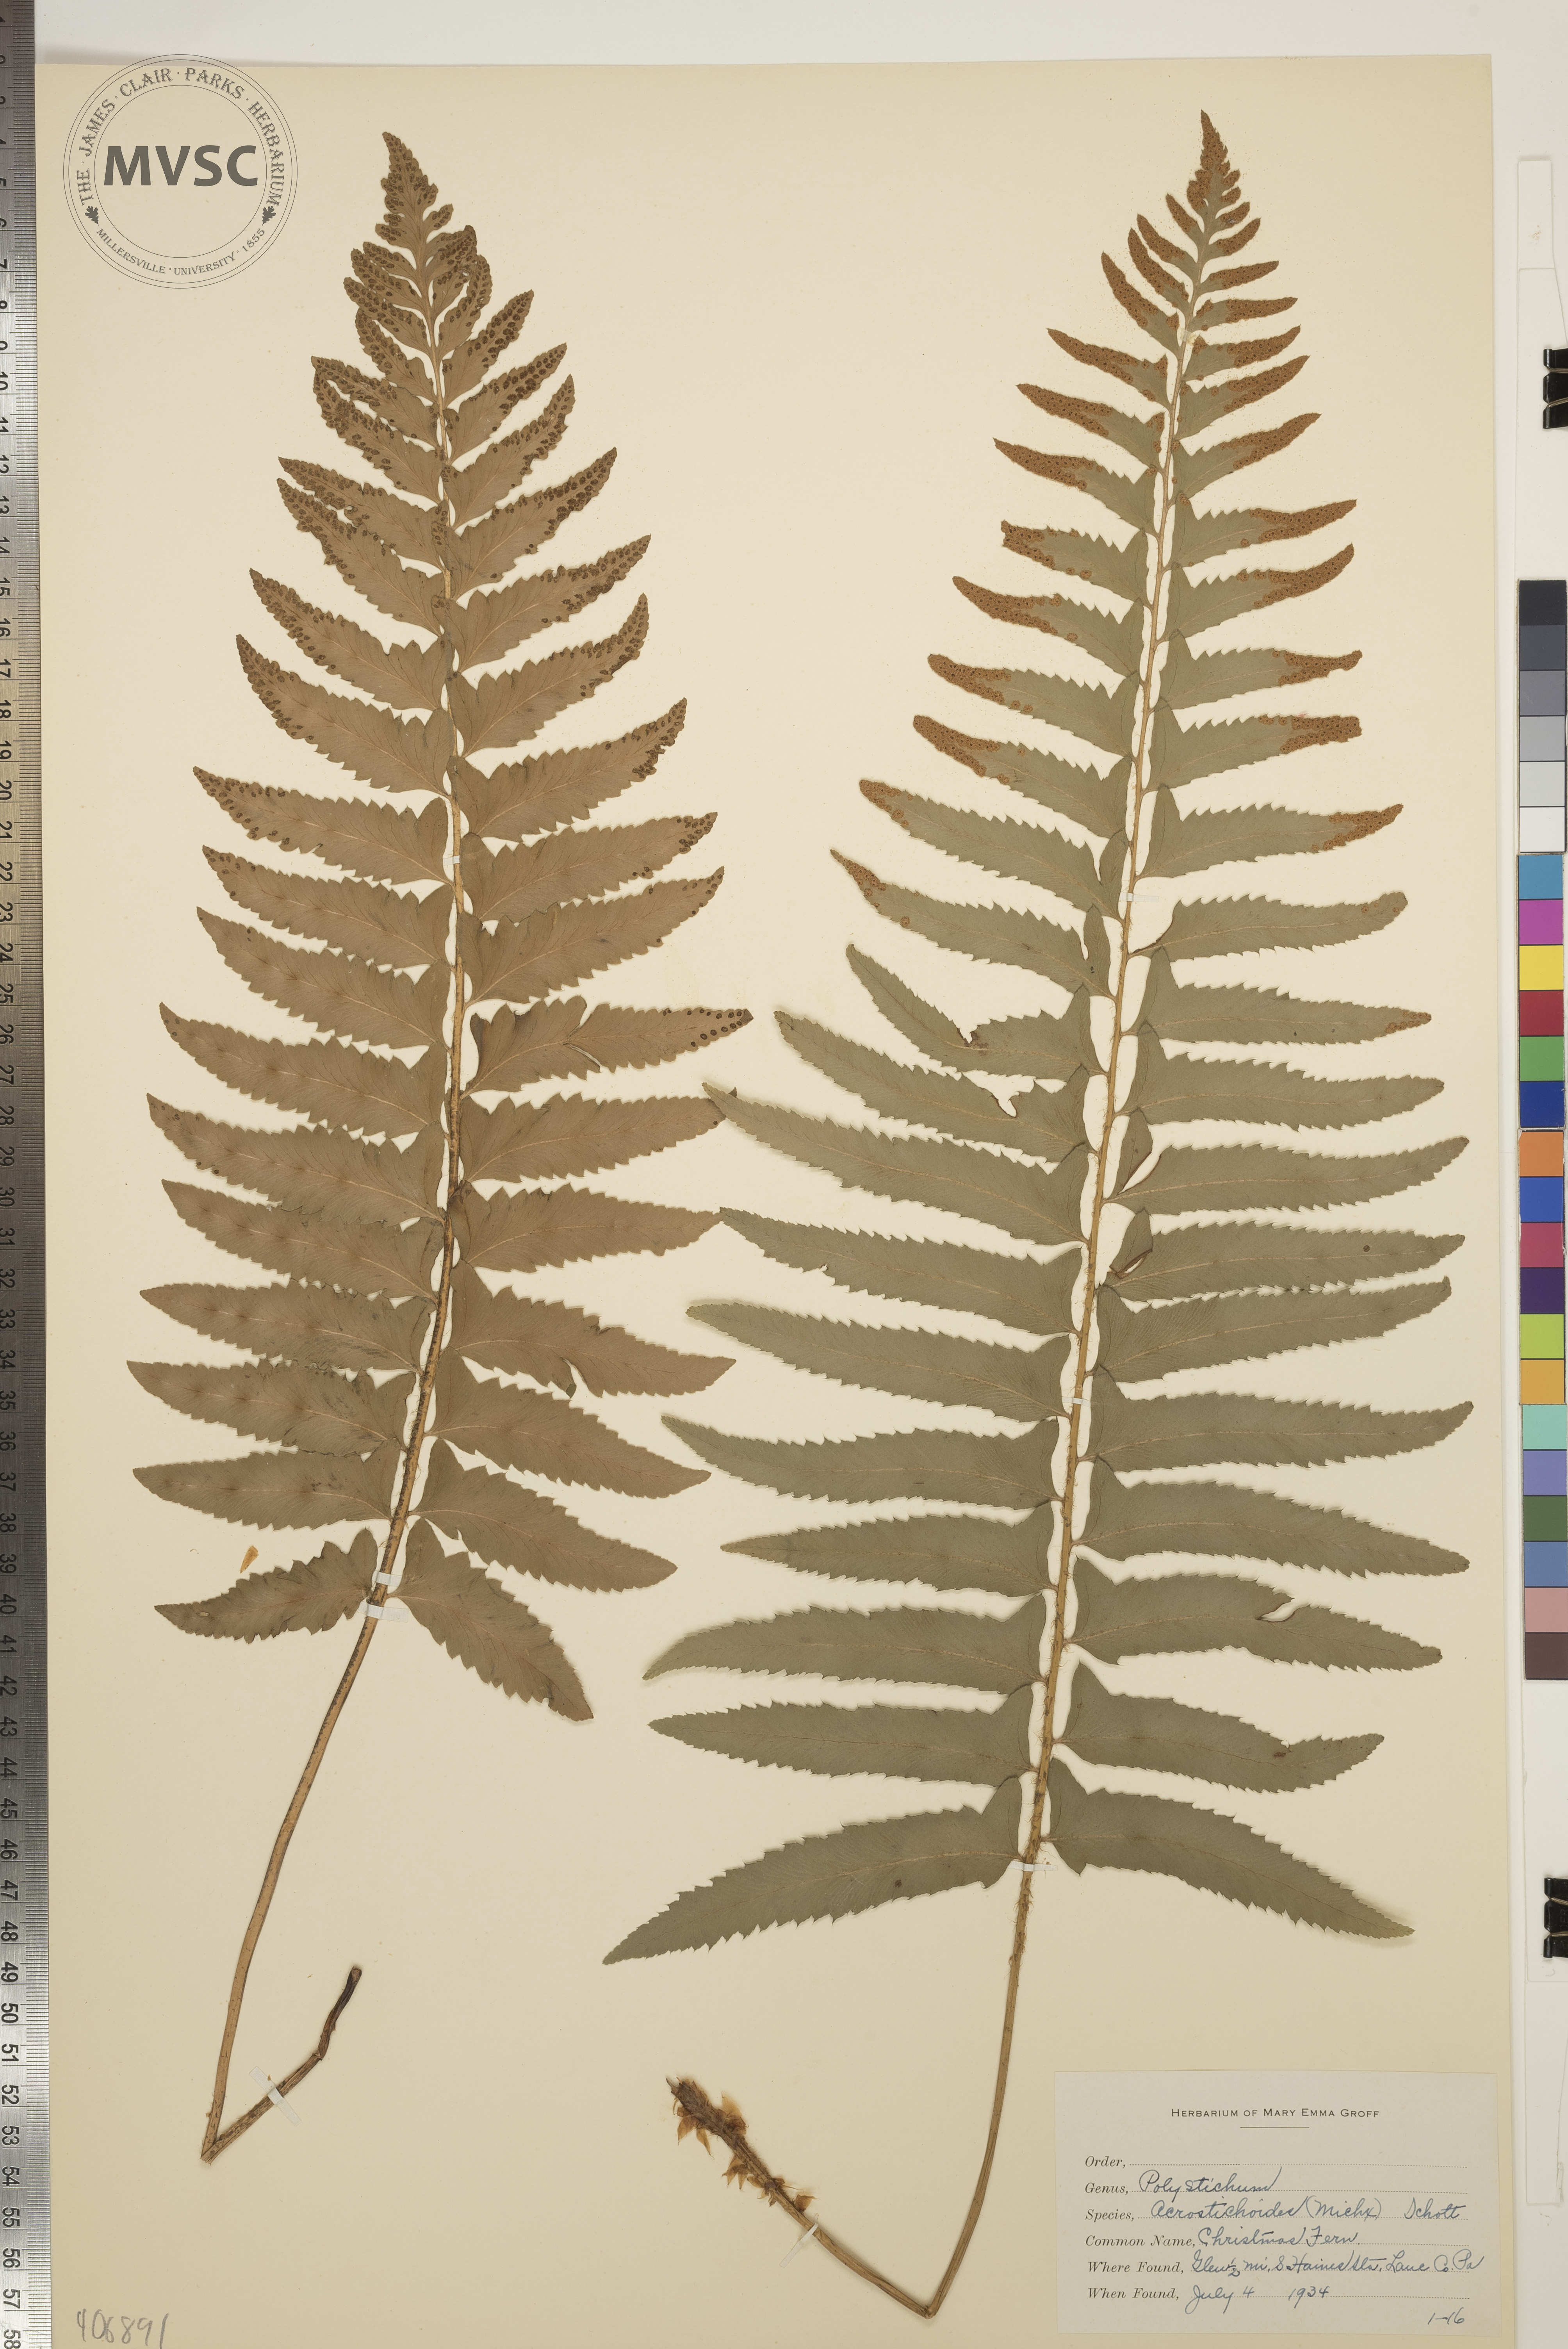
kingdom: Plantae
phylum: Tracheophyta
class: Polypodiopsida
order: Polypodiales
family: Dryopteridaceae
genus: Polystichum
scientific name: Polystichum acrostichoides
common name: Christmas Fern
